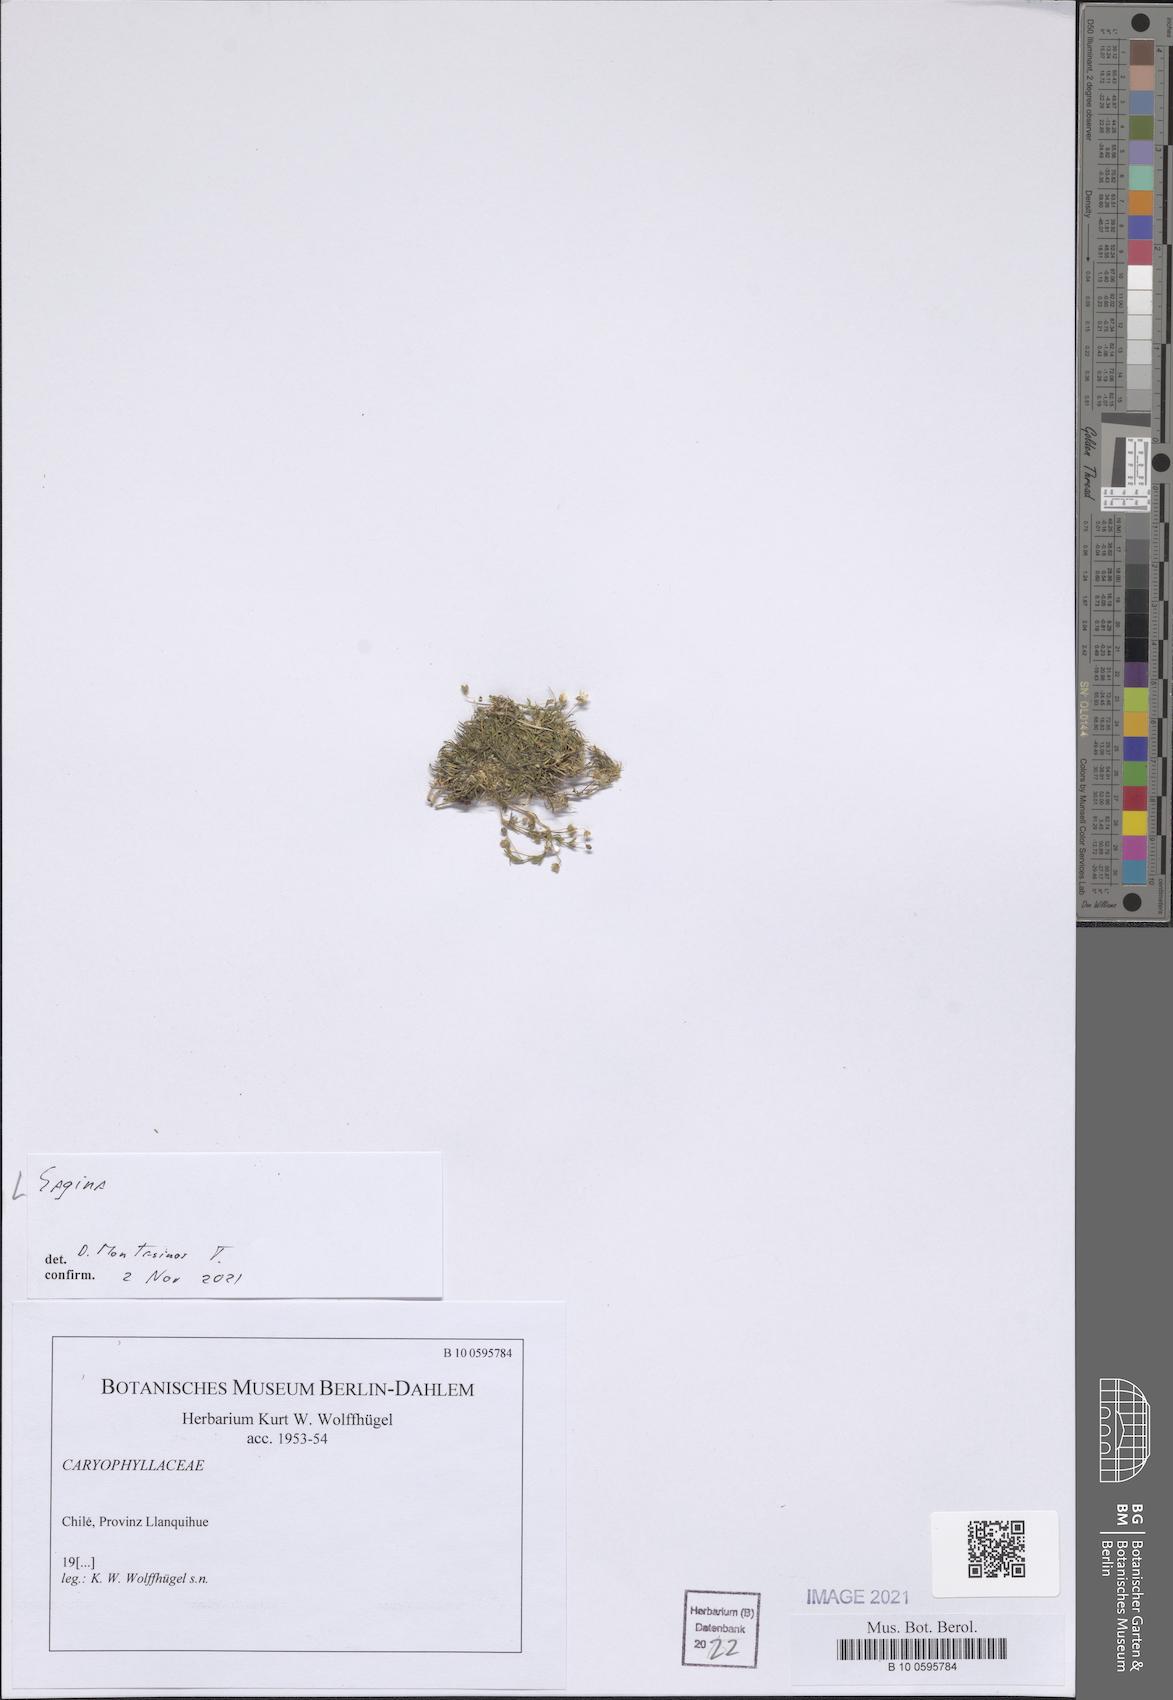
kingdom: Plantae
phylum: Tracheophyta
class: Magnoliopsida
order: Caryophyllales
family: Caryophyllaceae
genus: Sagina
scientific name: Sagina
